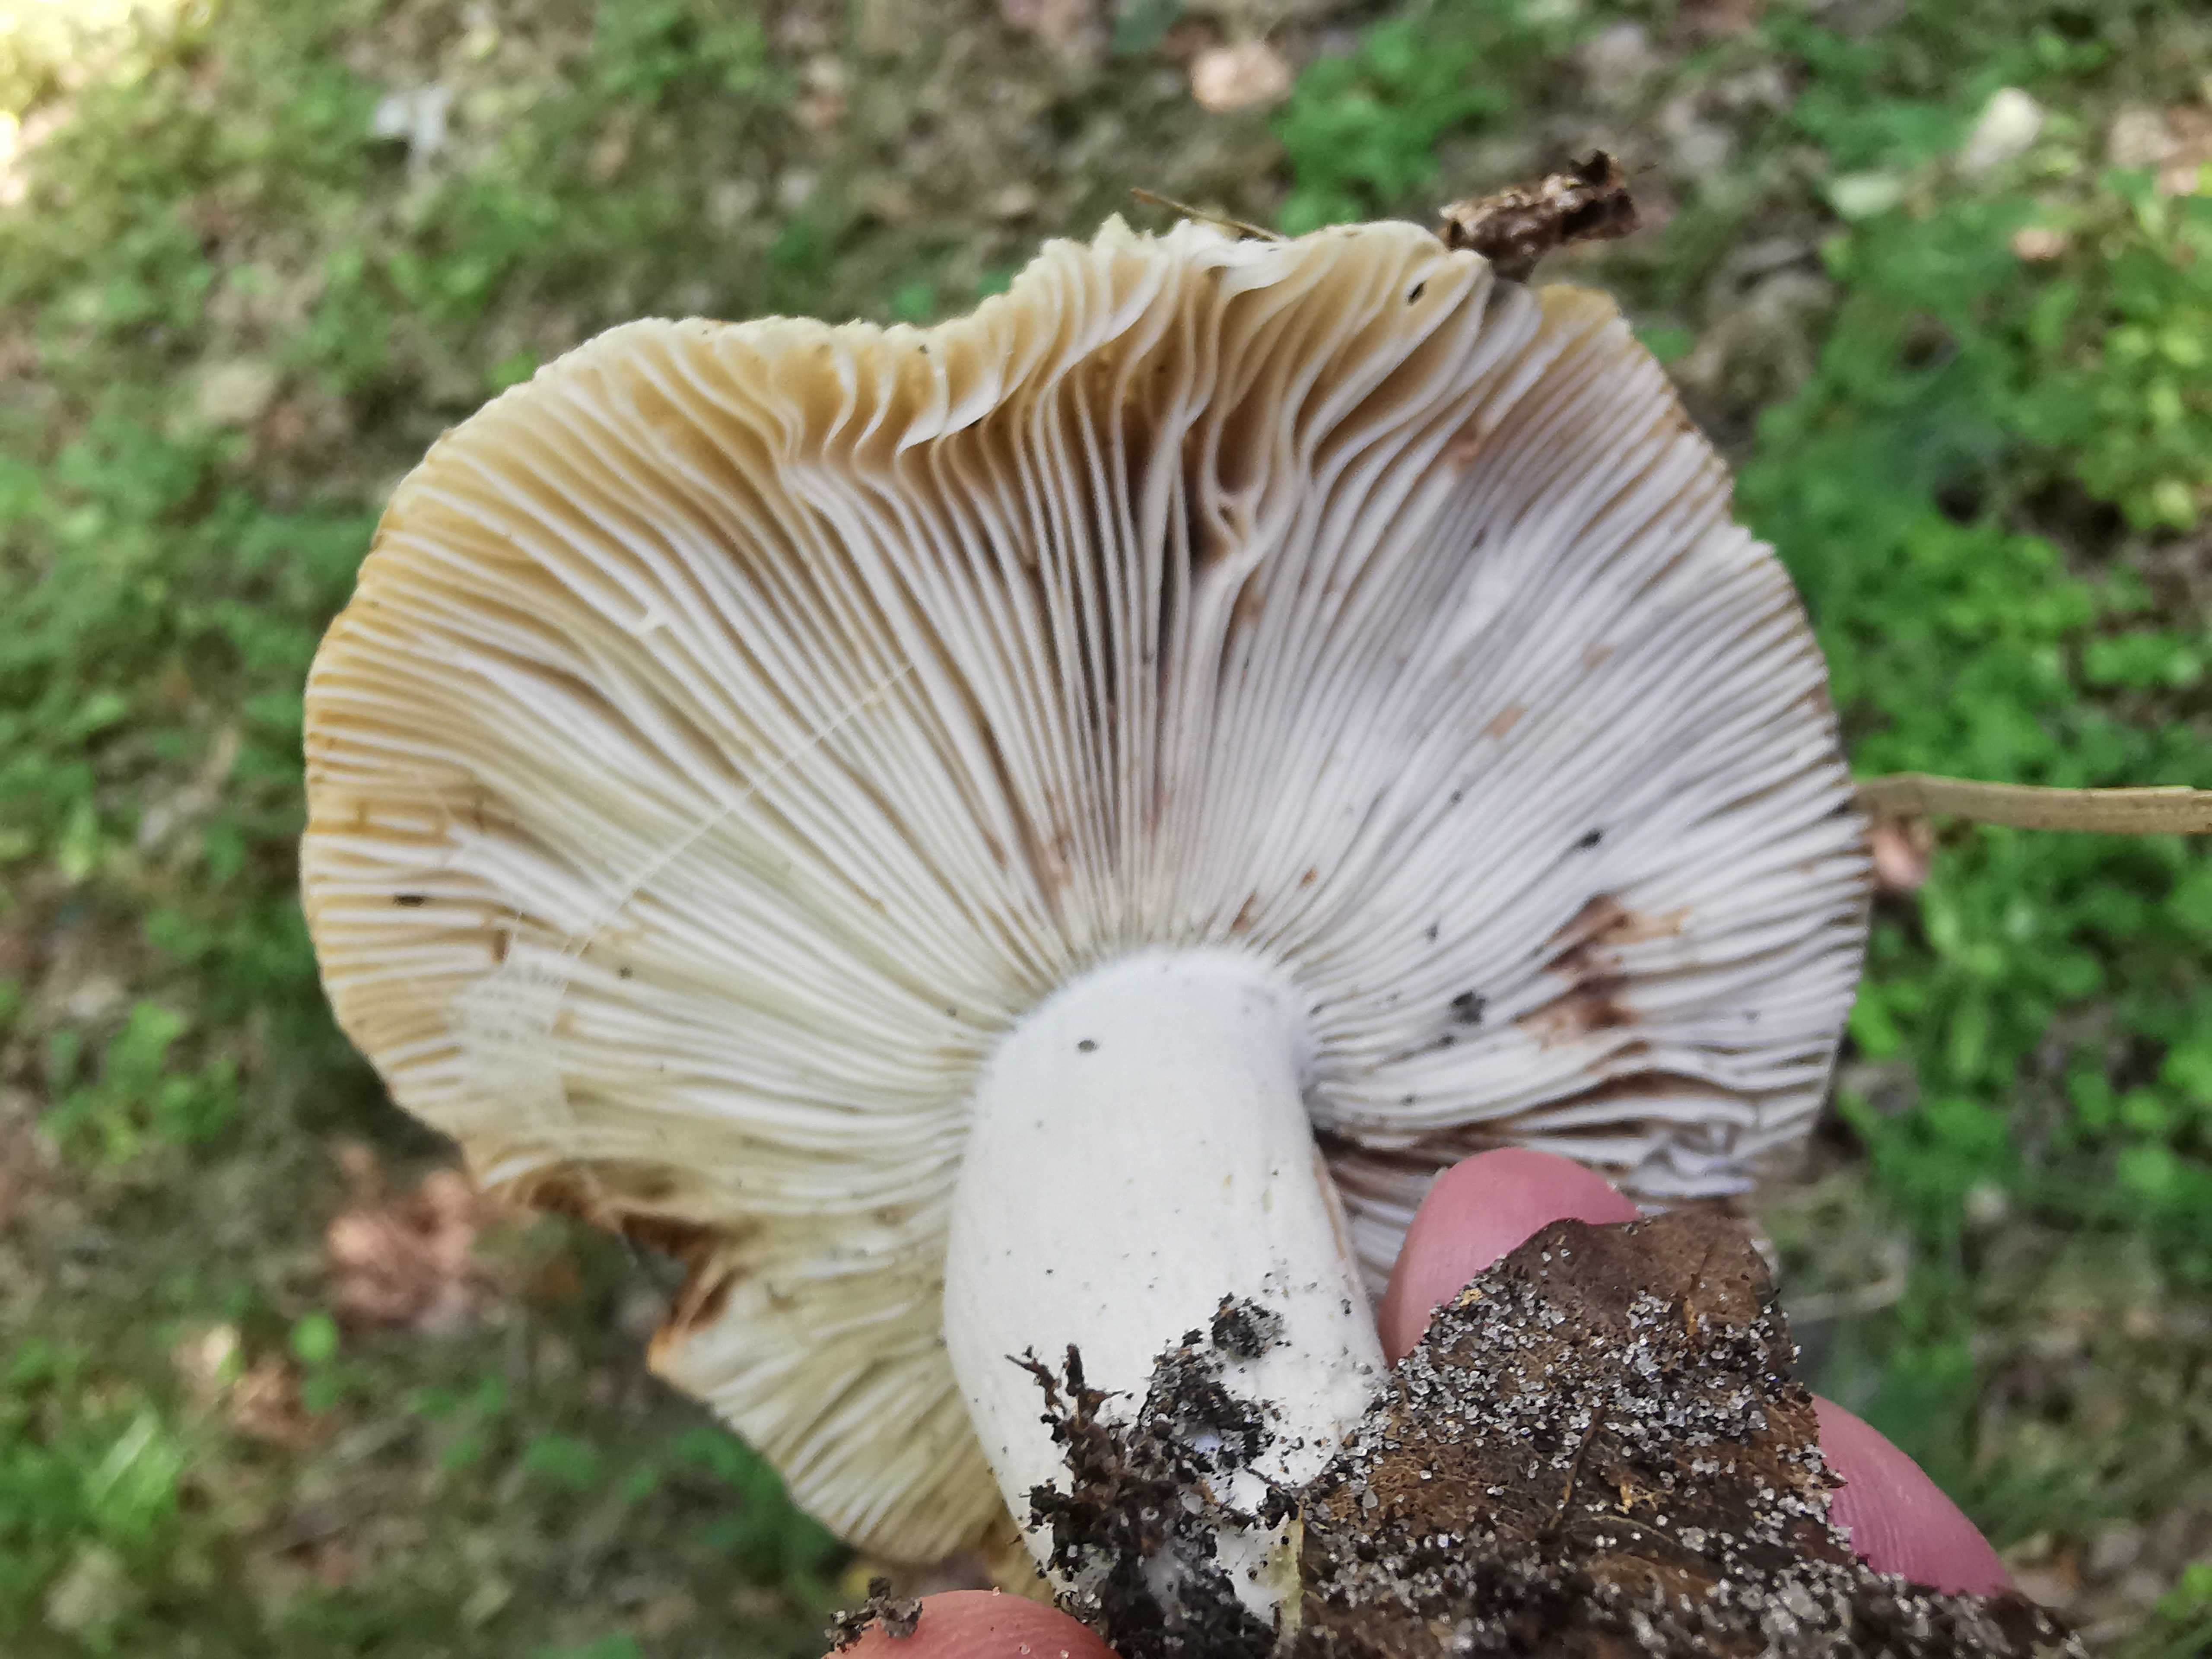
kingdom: Fungi
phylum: Basidiomycota
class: Agaricomycetes
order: Russulales
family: Russulaceae
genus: Russula
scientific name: Russula
